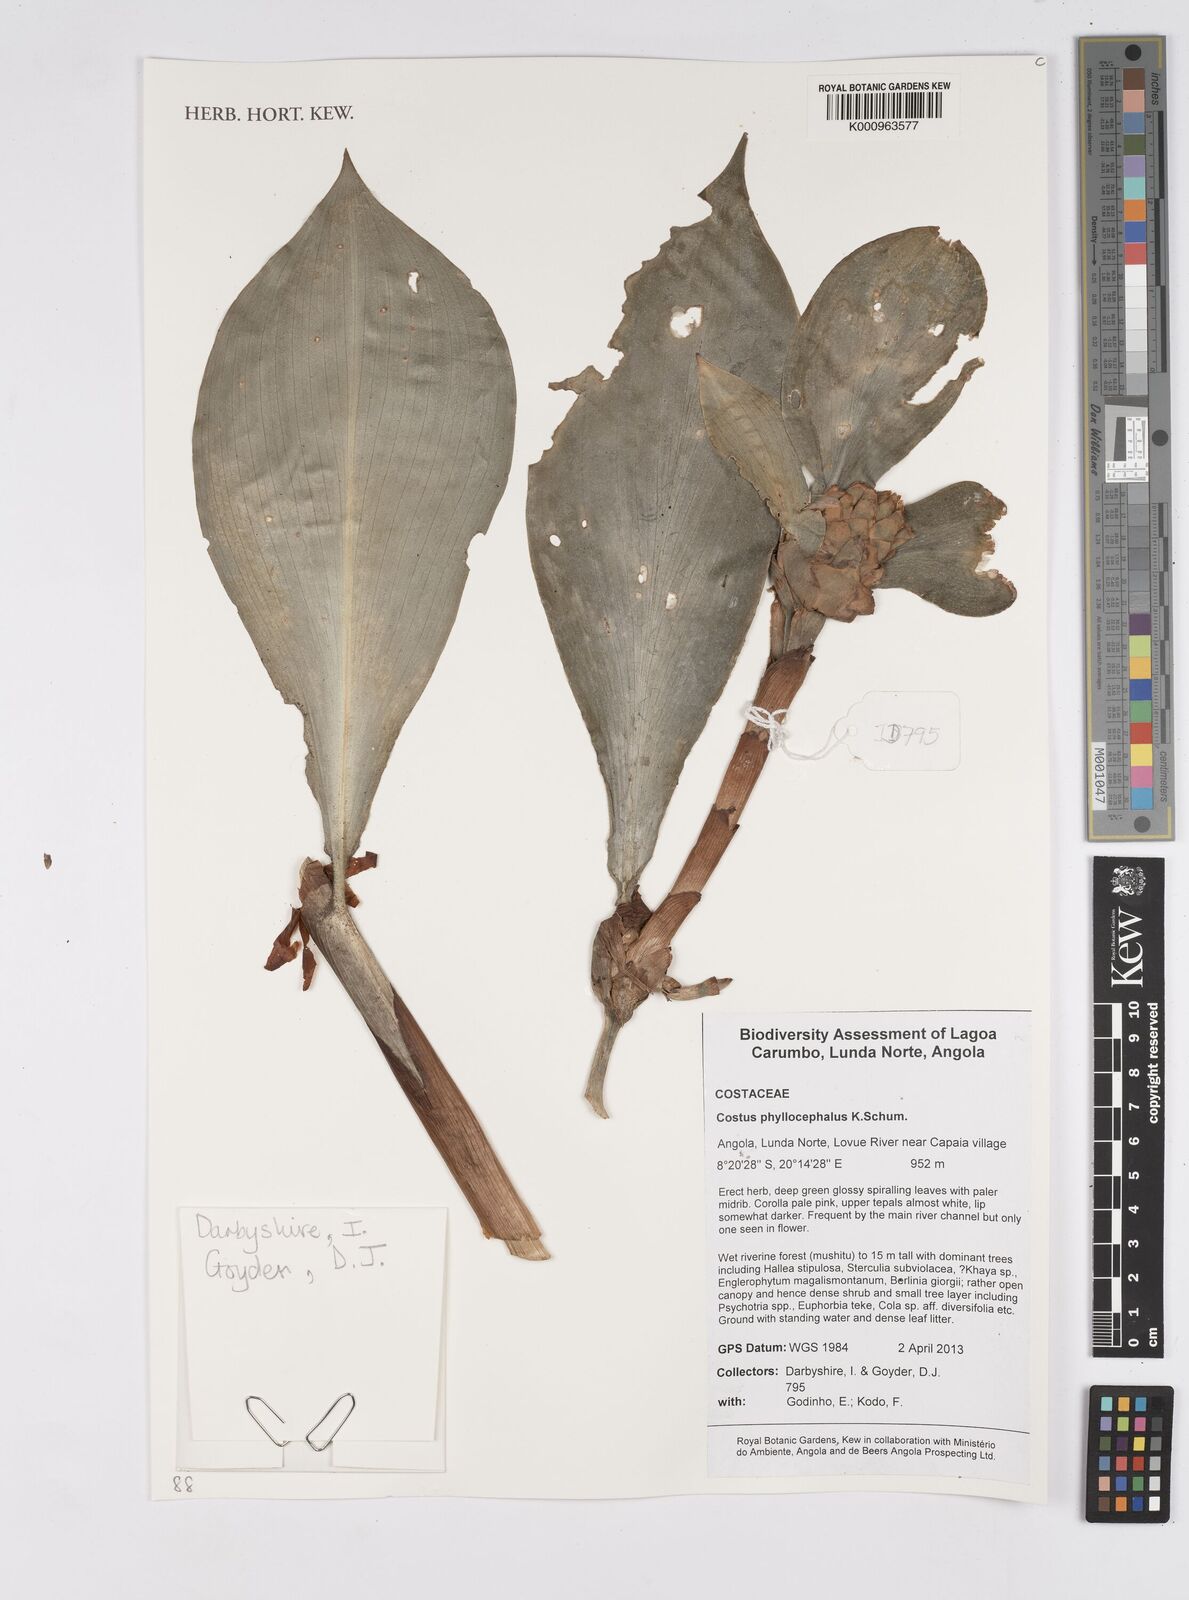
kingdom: Plantae
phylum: Tracheophyta
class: Liliopsida
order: Zingiberales
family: Costaceae
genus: Costus
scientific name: Costus phyllocephalus
